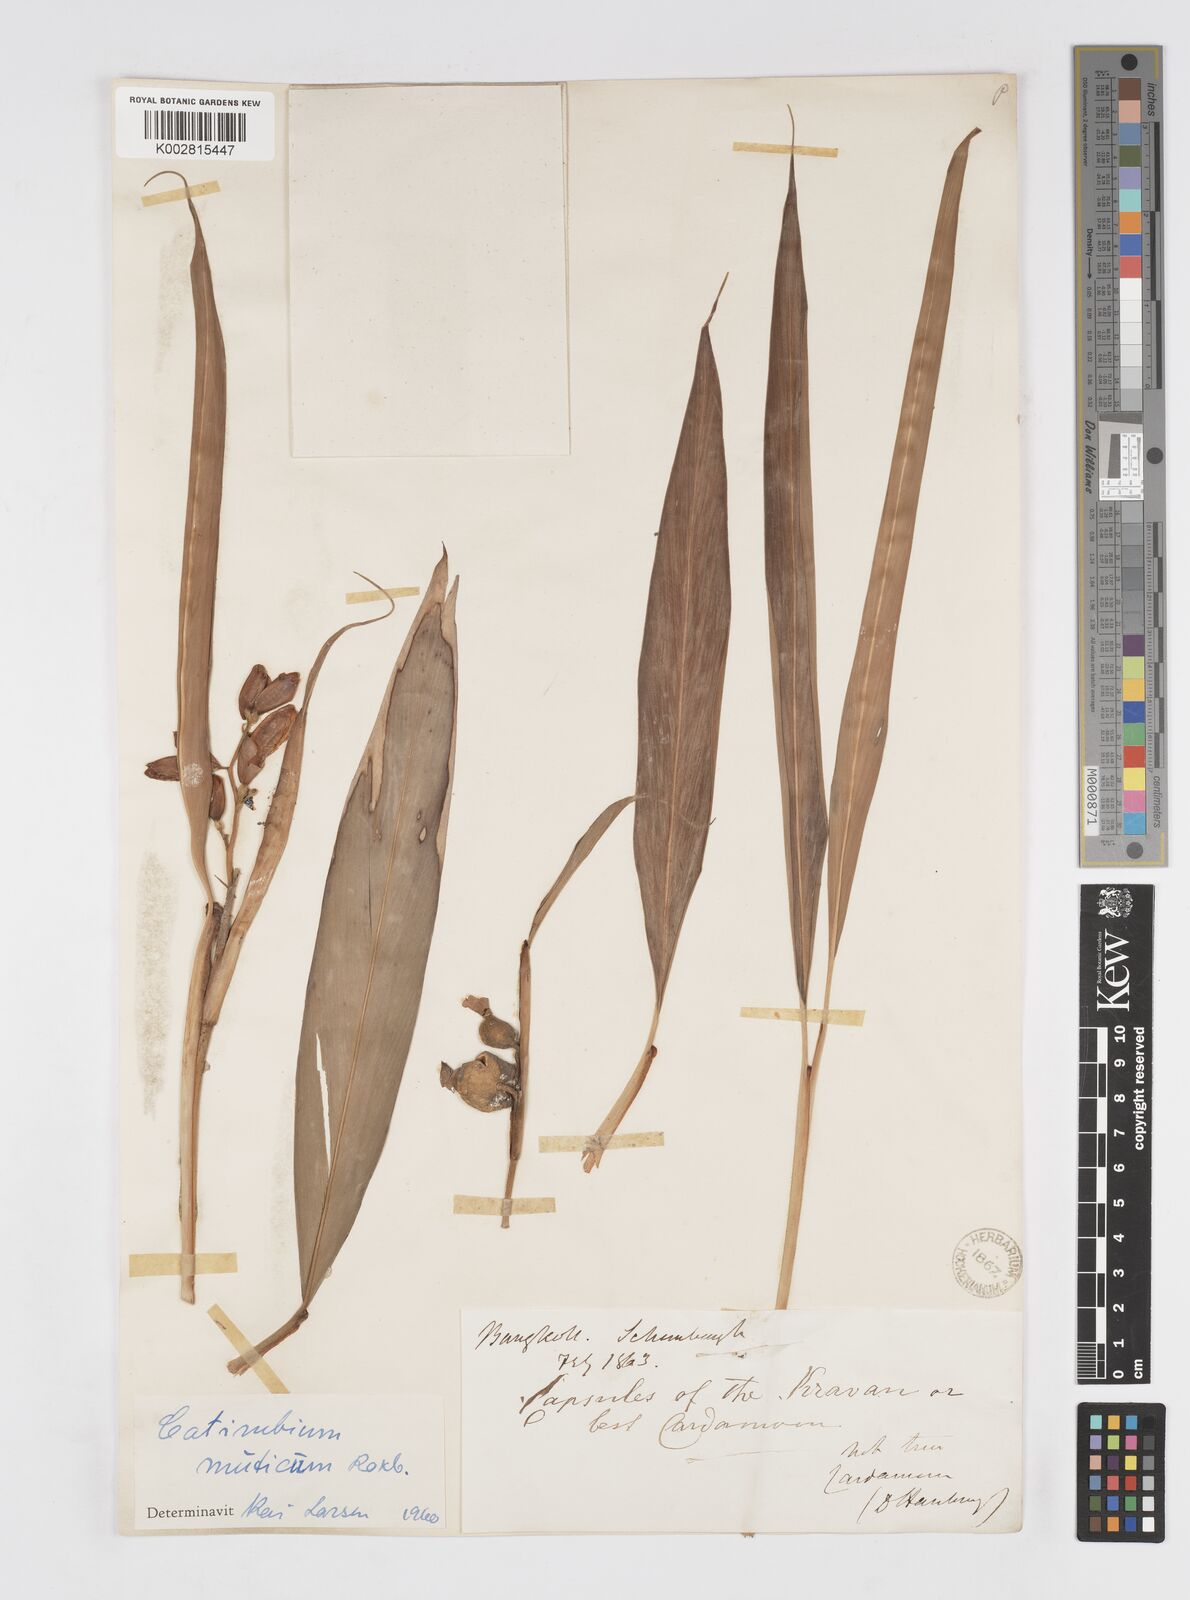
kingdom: Plantae
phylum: Tracheophyta
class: Liliopsida
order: Zingiberales
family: Zingiberaceae
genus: Alpinia
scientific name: Alpinia mutica
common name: Small shell ginger
